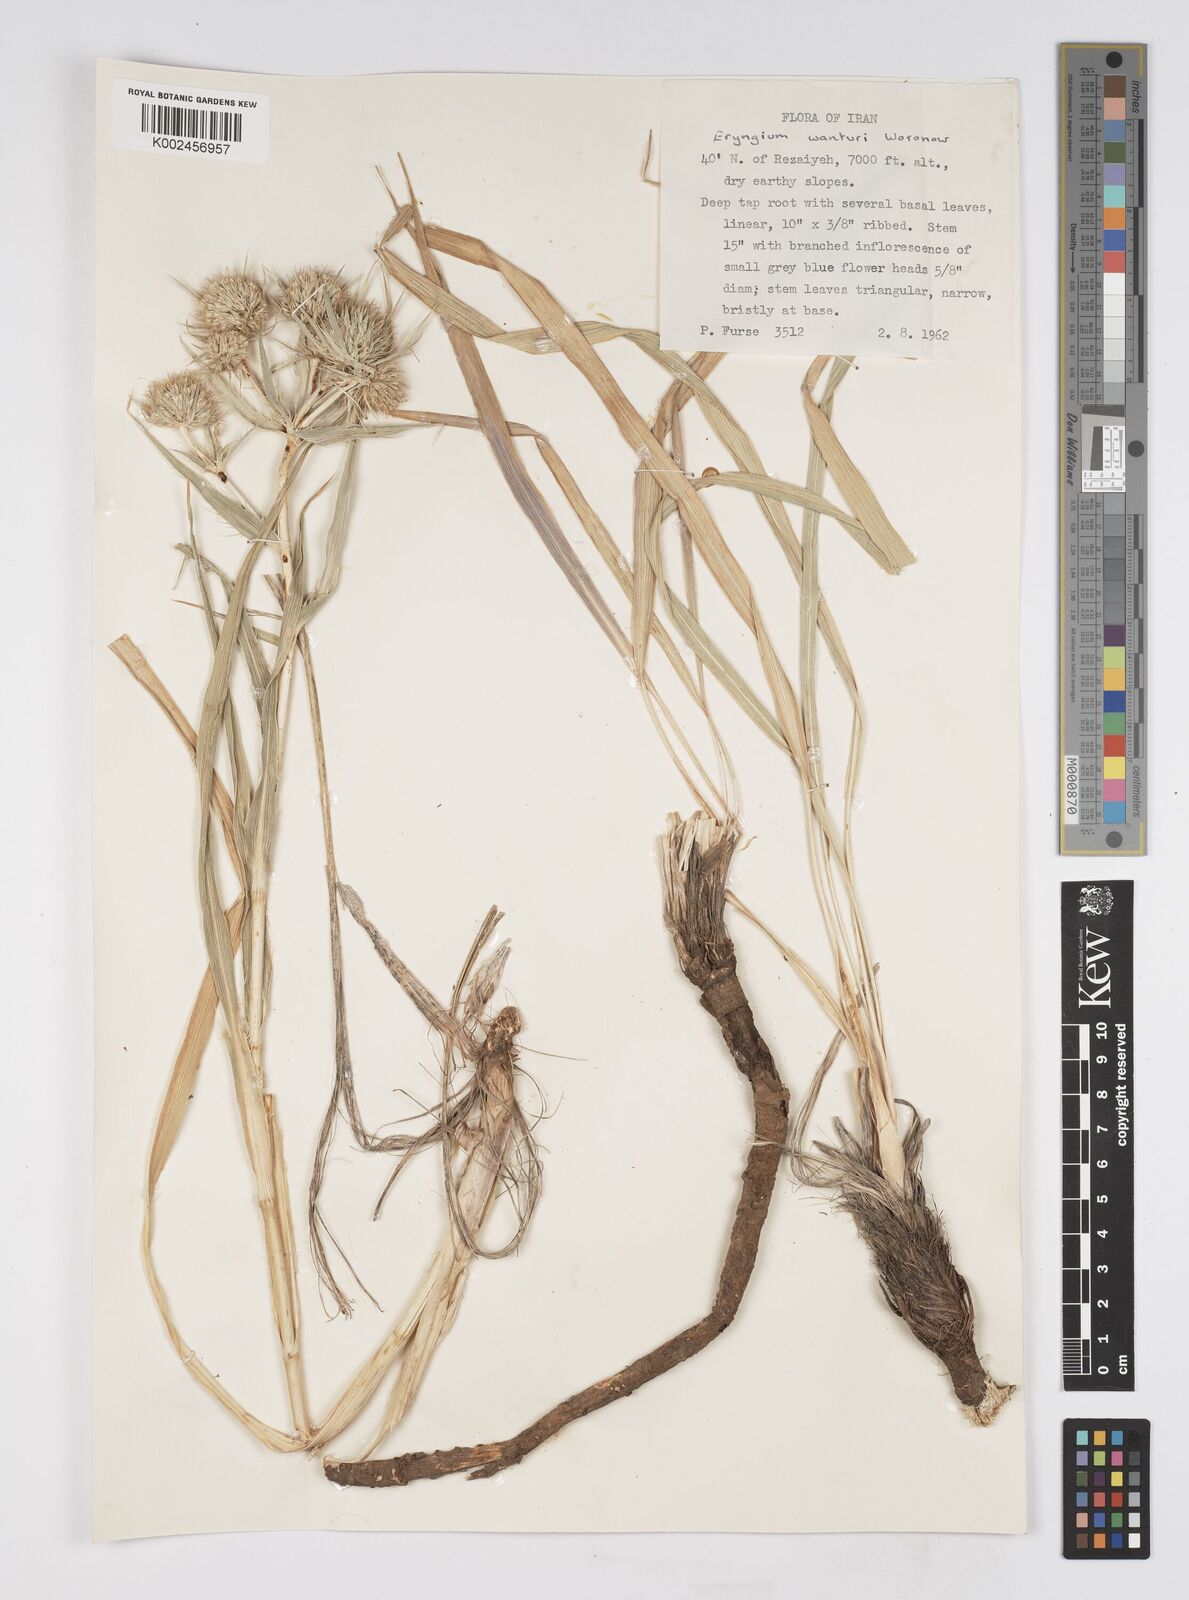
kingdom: Plantae
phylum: Tracheophyta
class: Magnoliopsida
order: Apiales
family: Apiaceae
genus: Eryngium
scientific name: Eryngium wanaturi
